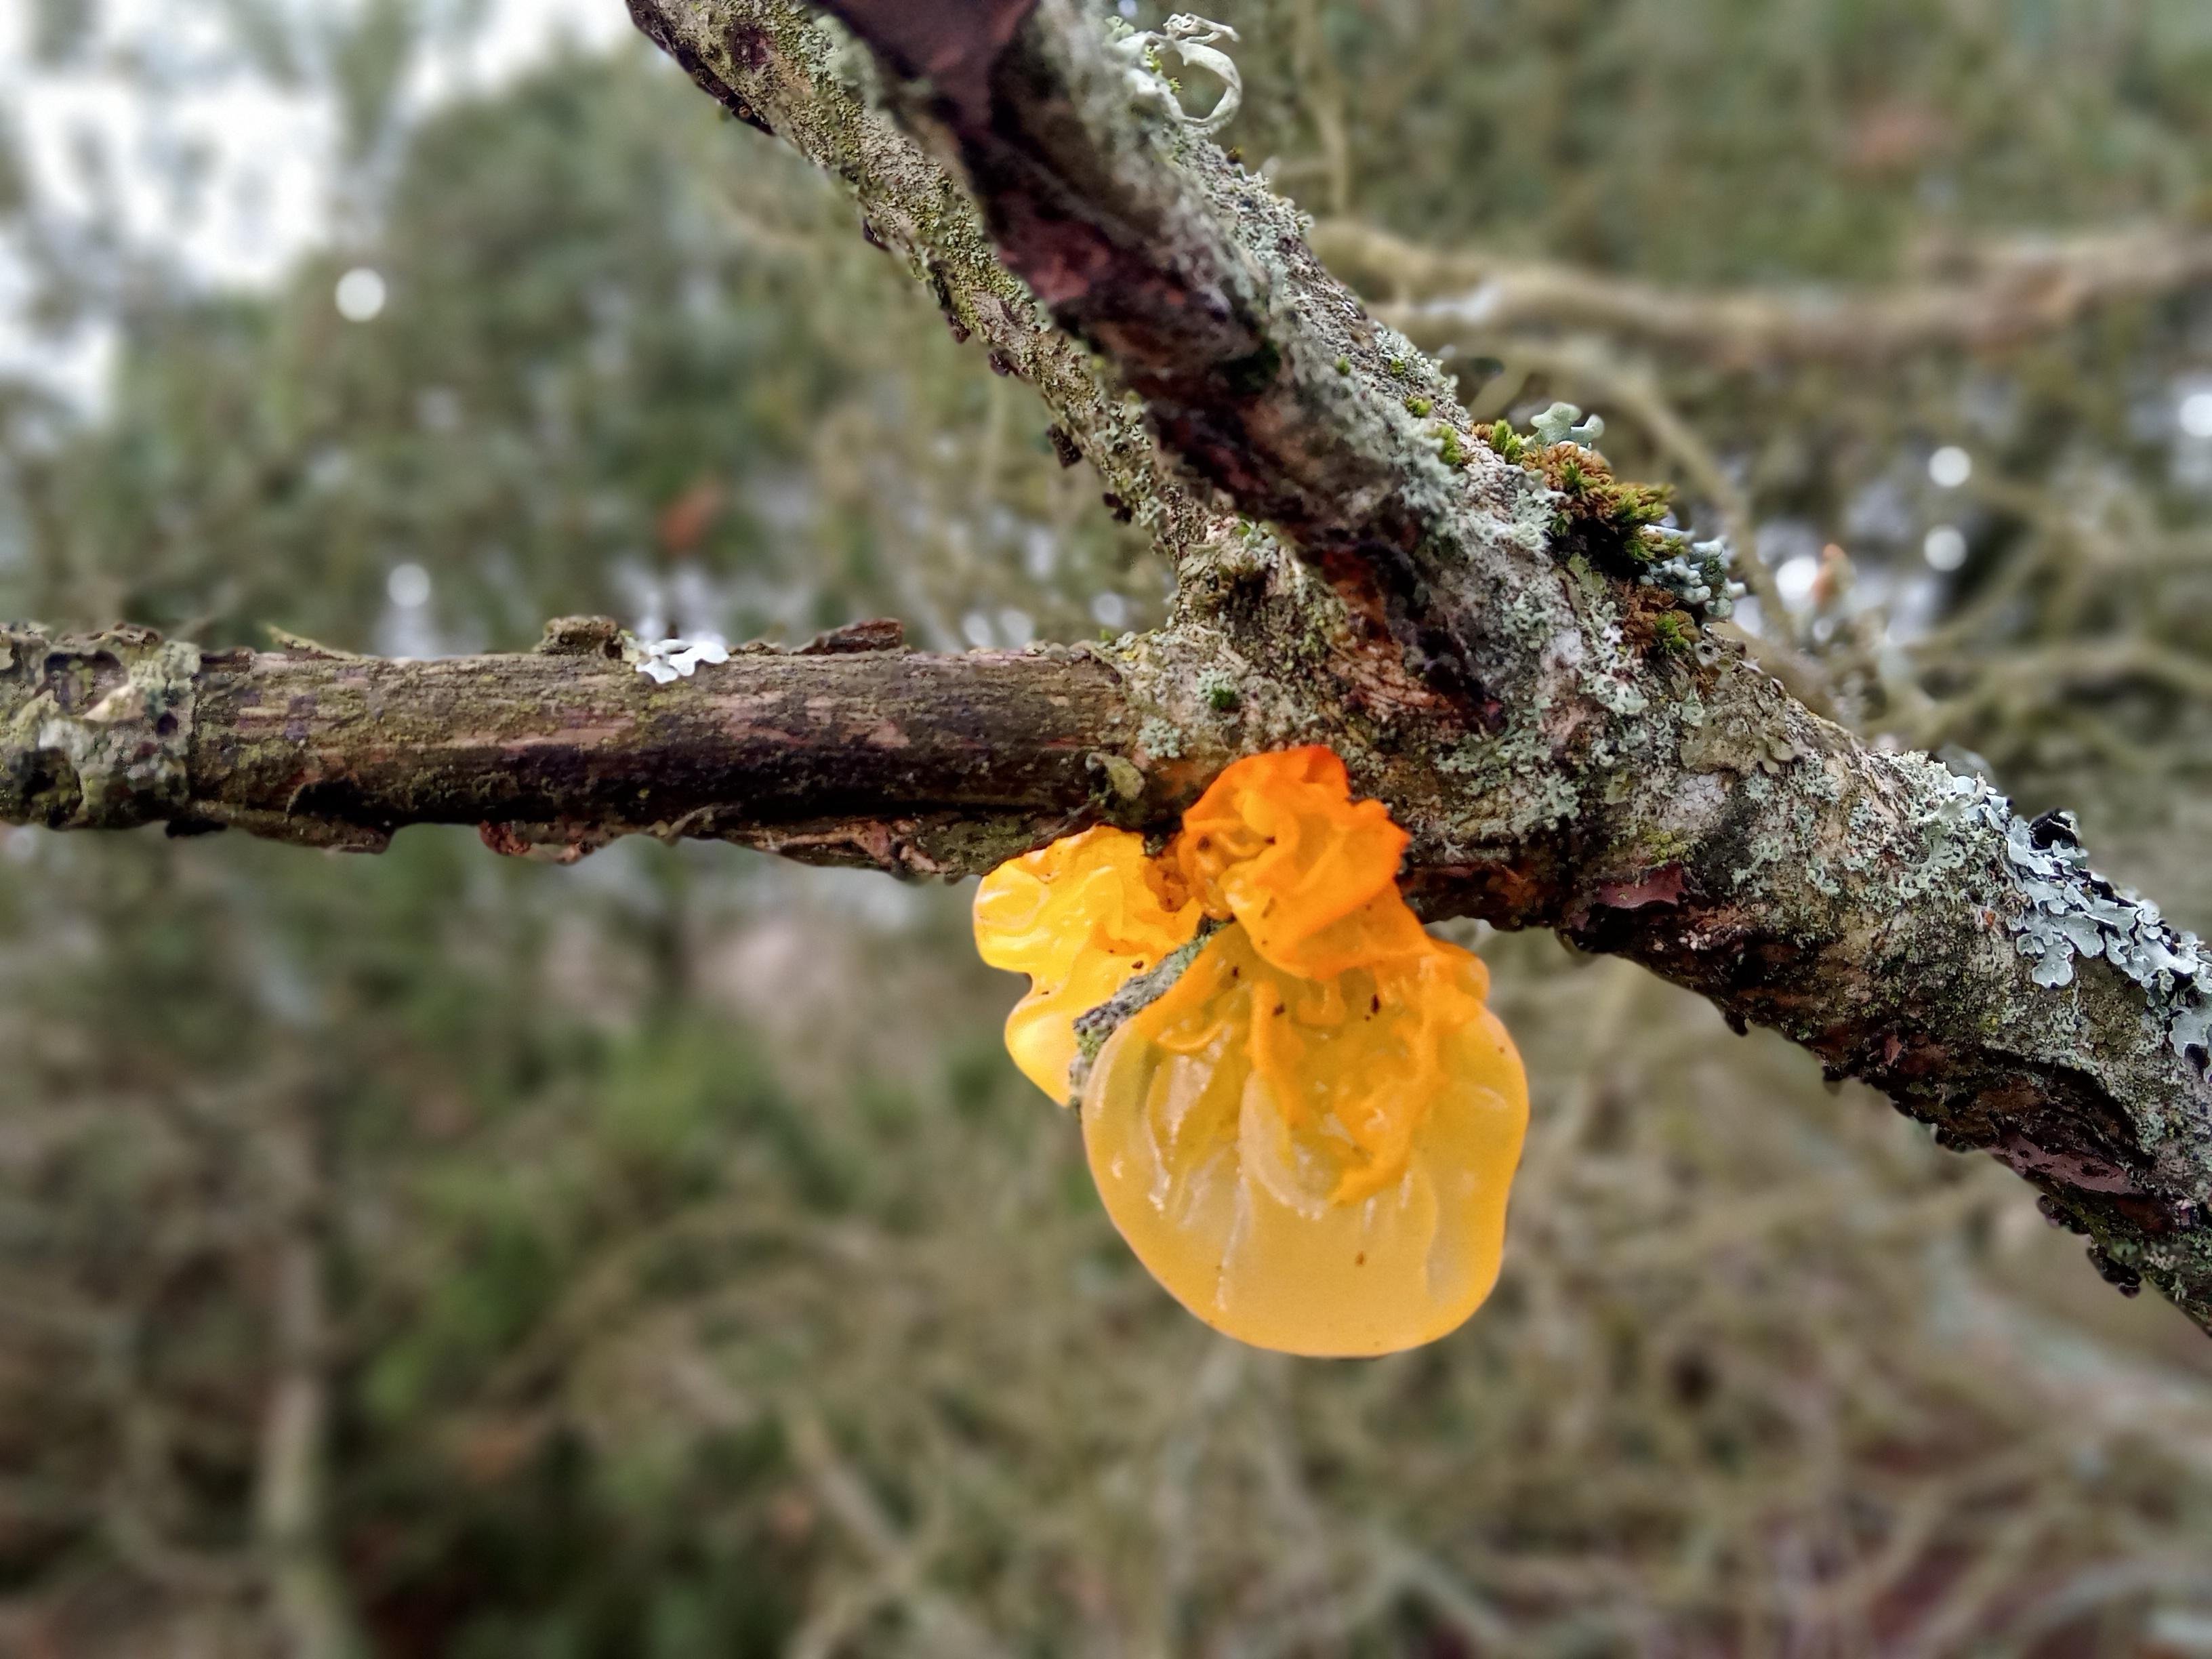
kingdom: Fungi
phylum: Basidiomycota
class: Tremellomycetes
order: Tremellales
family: Tremellaceae
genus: Tremella
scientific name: Tremella mesenterica
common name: gul bævresvamp
